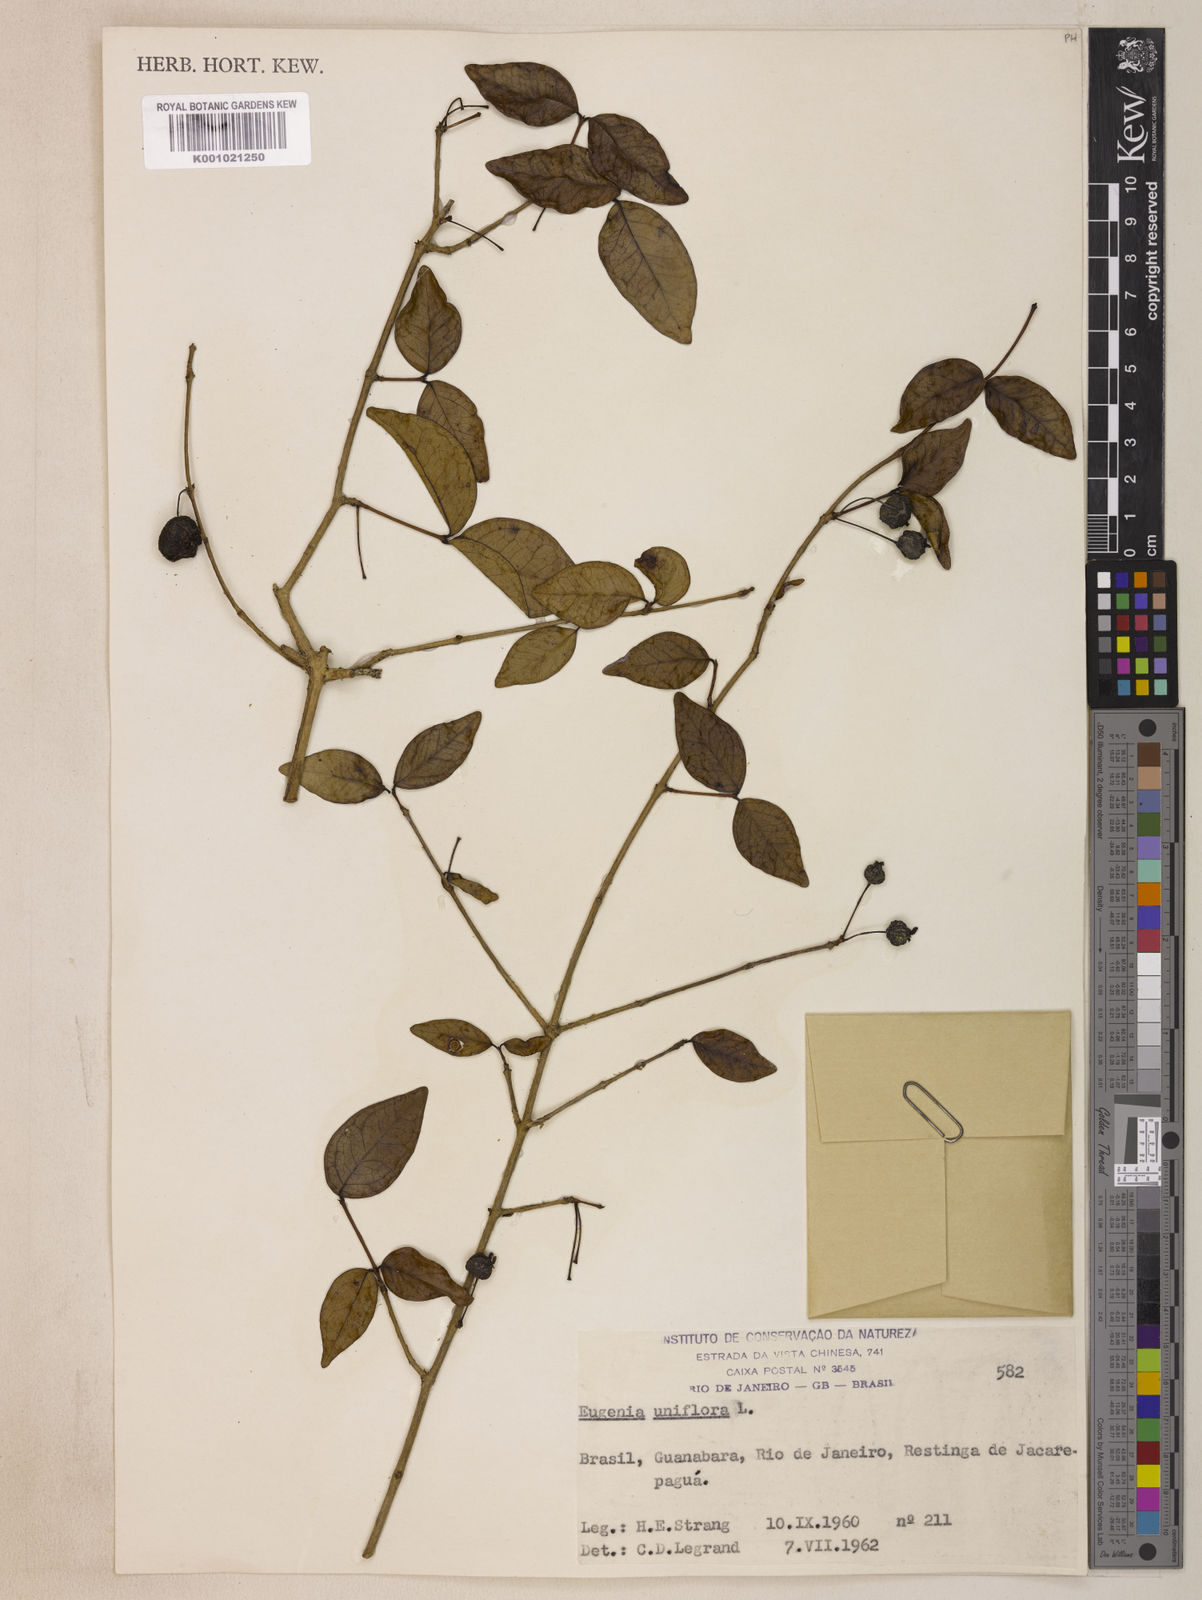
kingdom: Plantae
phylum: Tracheophyta
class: Magnoliopsida
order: Myrtales
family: Myrtaceae
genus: Eugenia
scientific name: Eugenia uniflora
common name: Surinam cherry
